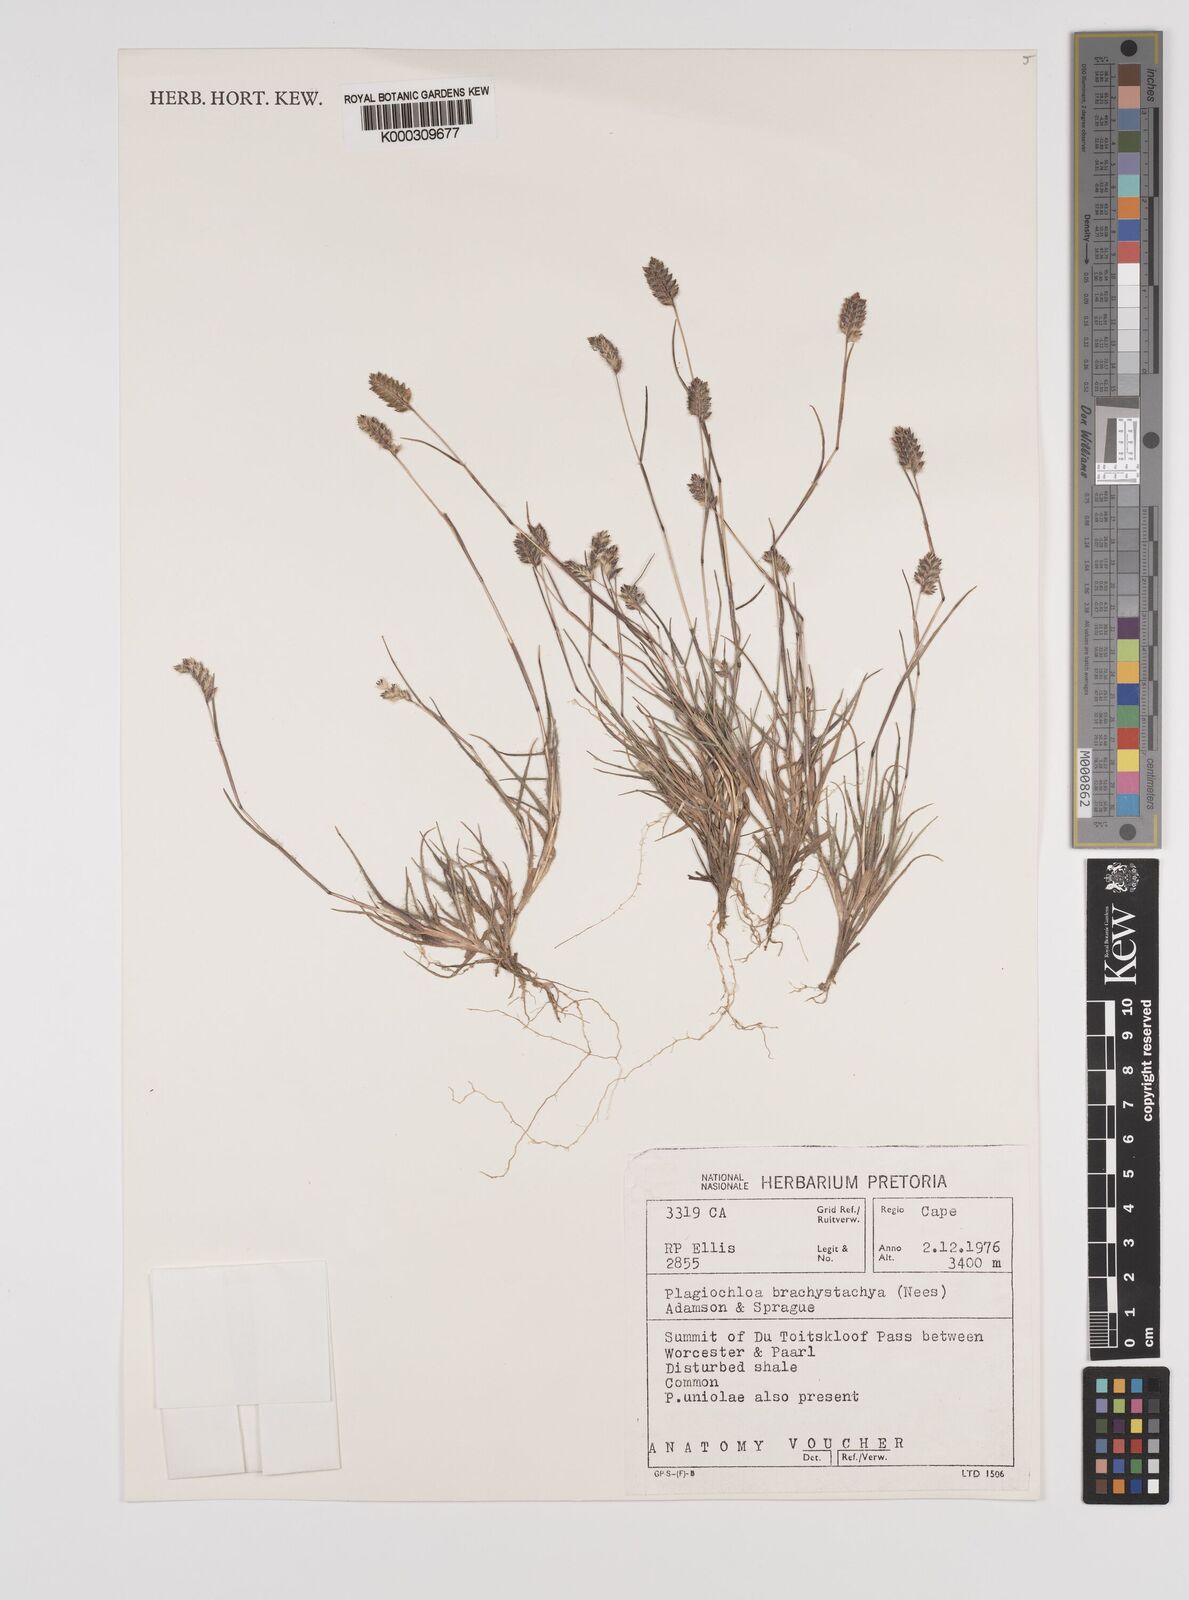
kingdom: Plantae
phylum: Tracheophyta
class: Liliopsida
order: Poales
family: Poaceae
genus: Tribolium
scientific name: Tribolium brachystachyum
